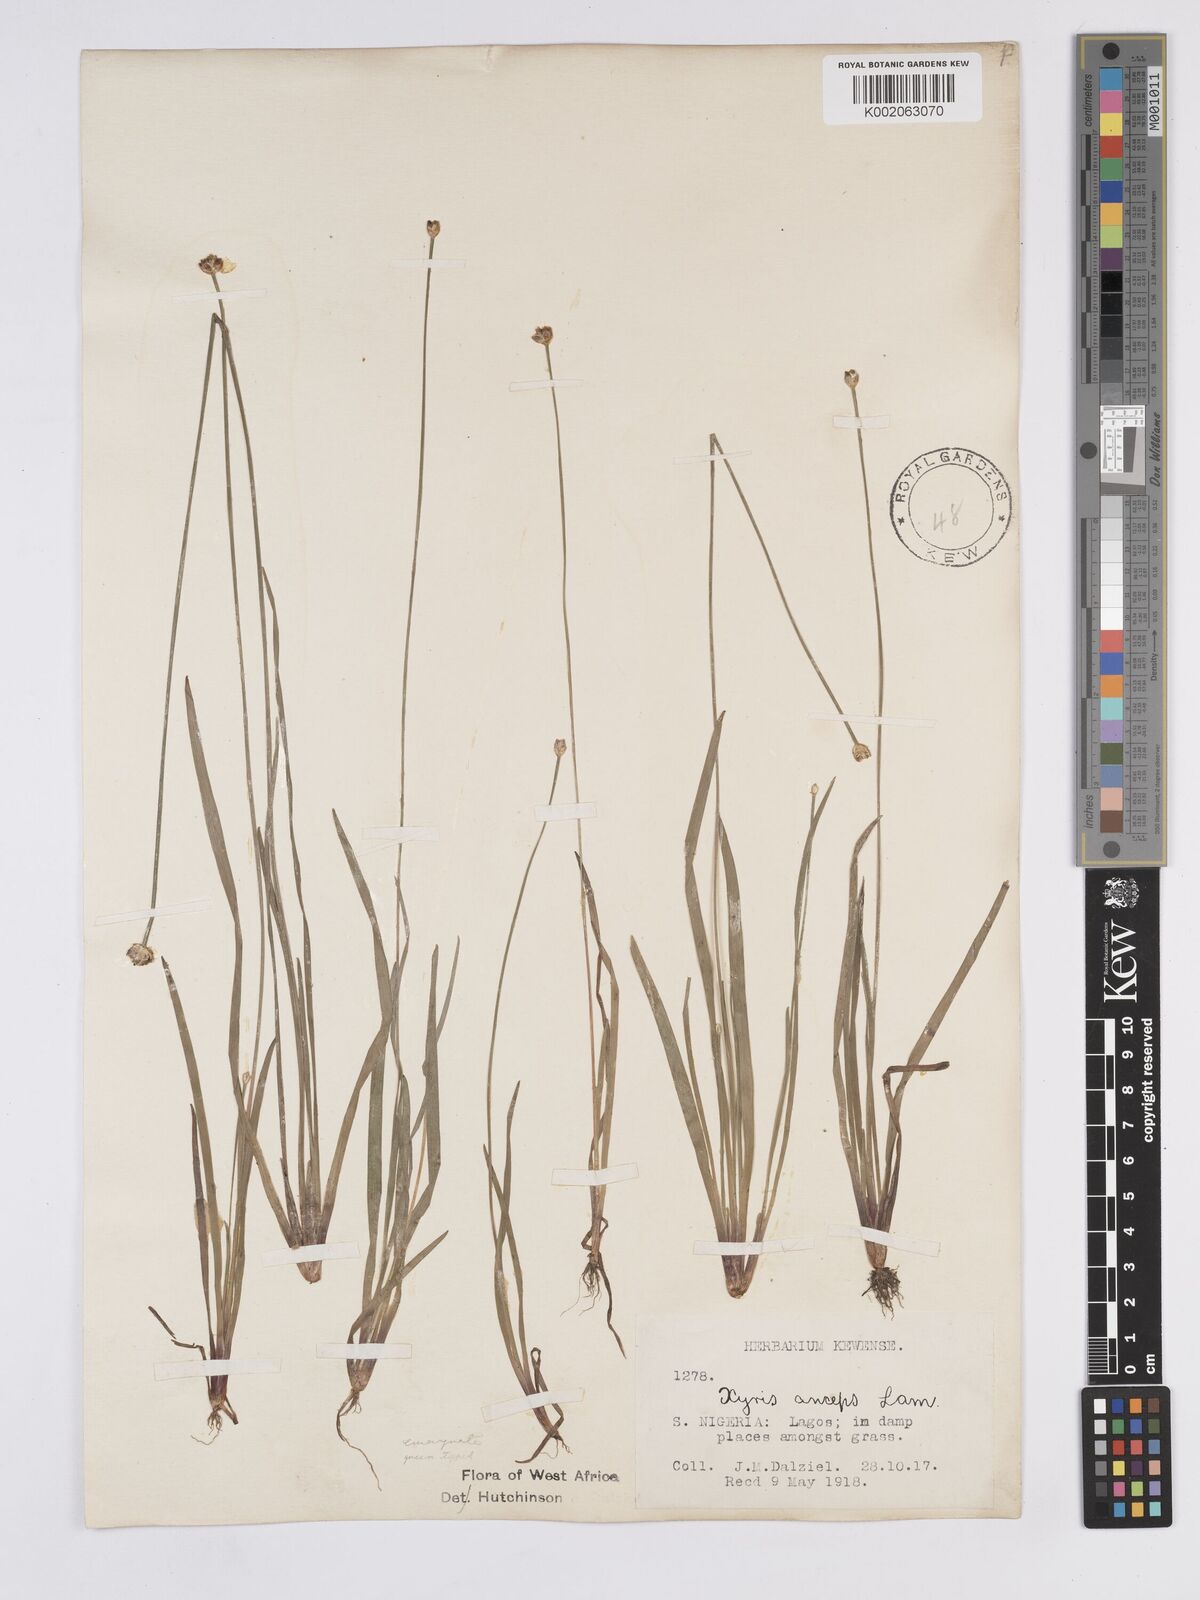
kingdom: Plantae
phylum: Tracheophyta
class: Liliopsida
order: Poales
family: Xyridaceae
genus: Xyris
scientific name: Xyris anceps
